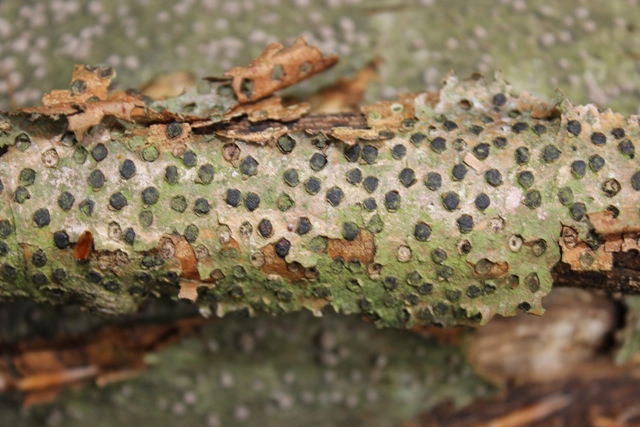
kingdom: Fungi
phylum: Ascomycota
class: Sordariomycetes
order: Xylariales
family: Diatrypaceae
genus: Diatrype
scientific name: Diatrype disciformis
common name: kant-kulskorpe
